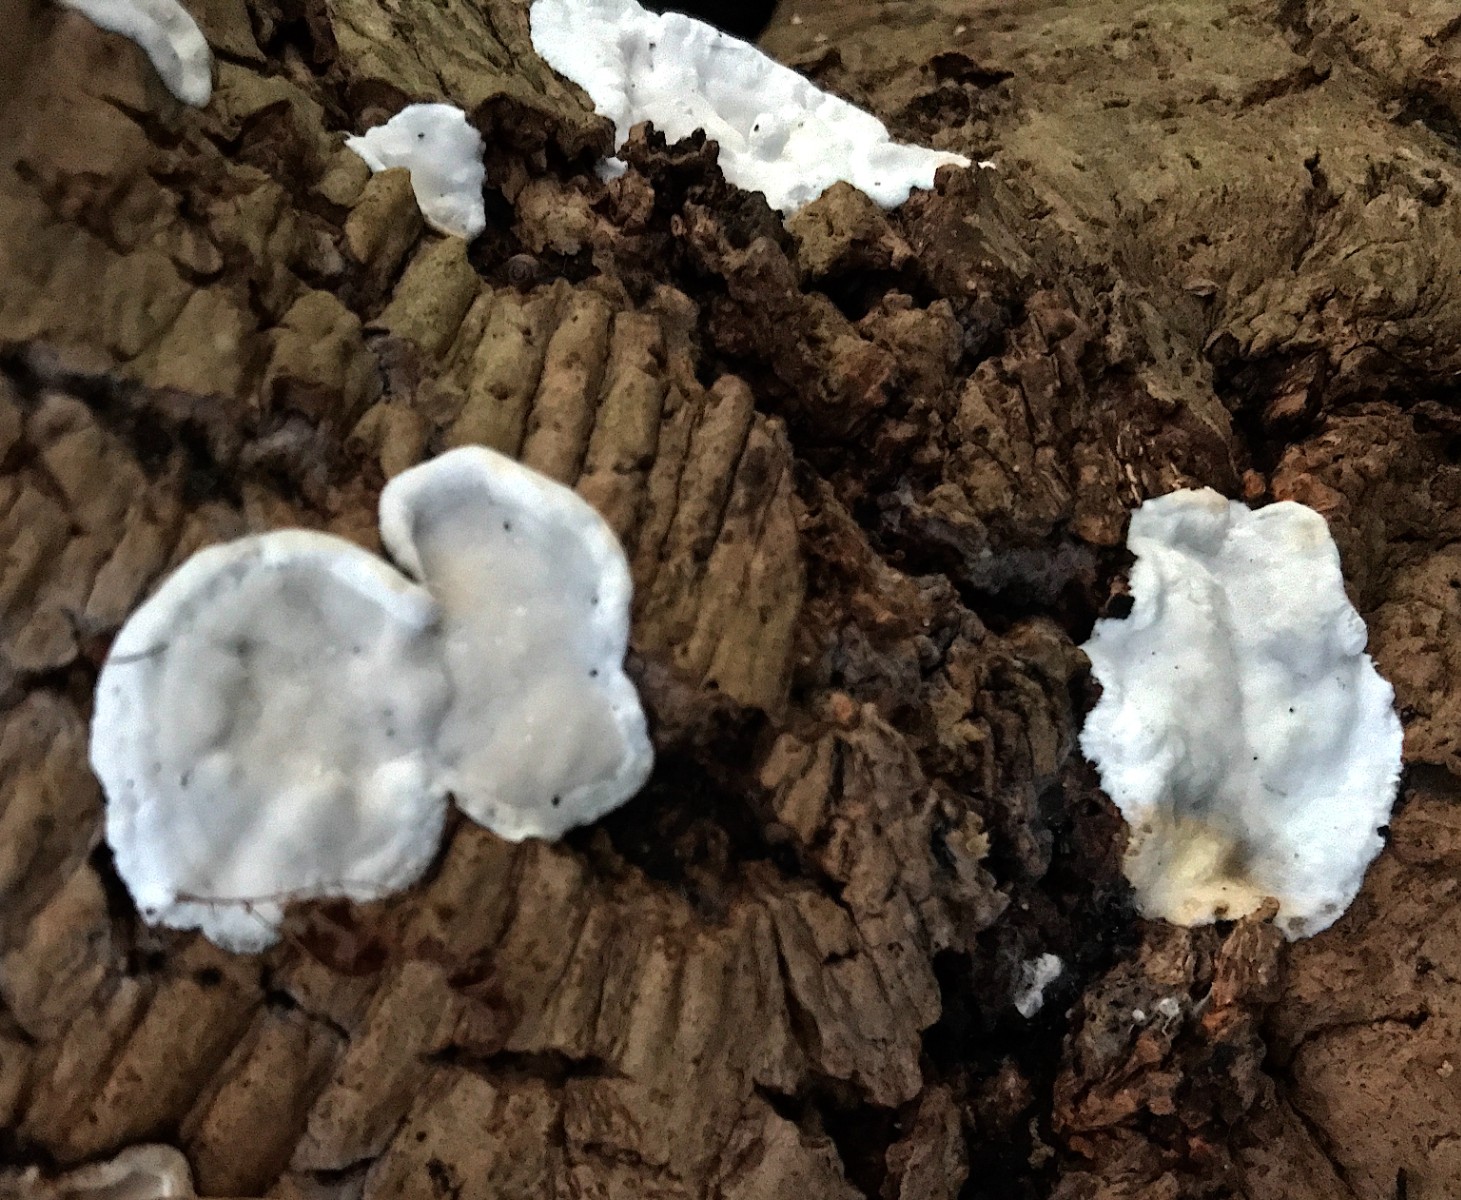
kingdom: Fungi
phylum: Basidiomycota
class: Agaricomycetes
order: Polyporales
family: Incrustoporiaceae
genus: Skeletocutis
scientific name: Skeletocutis nemoralis
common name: stor krystalporesvamp
